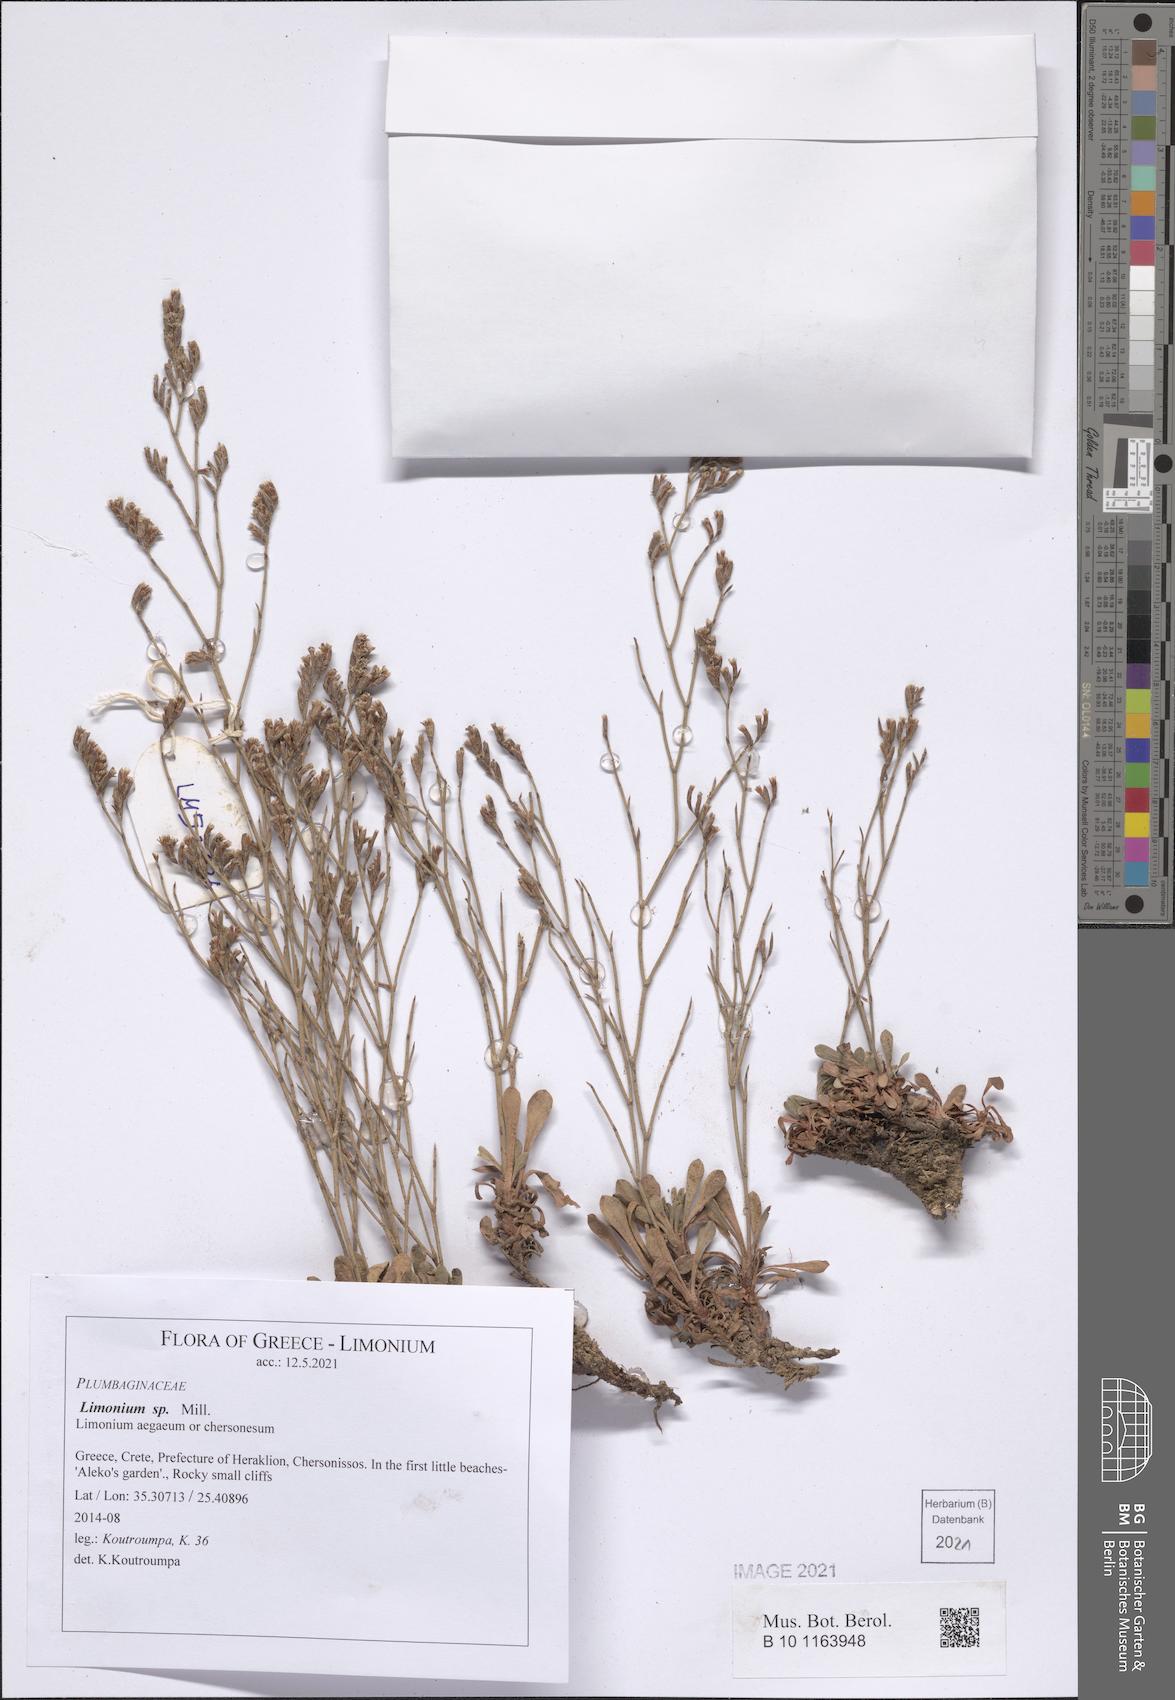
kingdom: Plantae
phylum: Tracheophyta
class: Magnoliopsida
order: Caryophyllales
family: Plumbaginaceae
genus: Limonium
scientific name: Limonium
